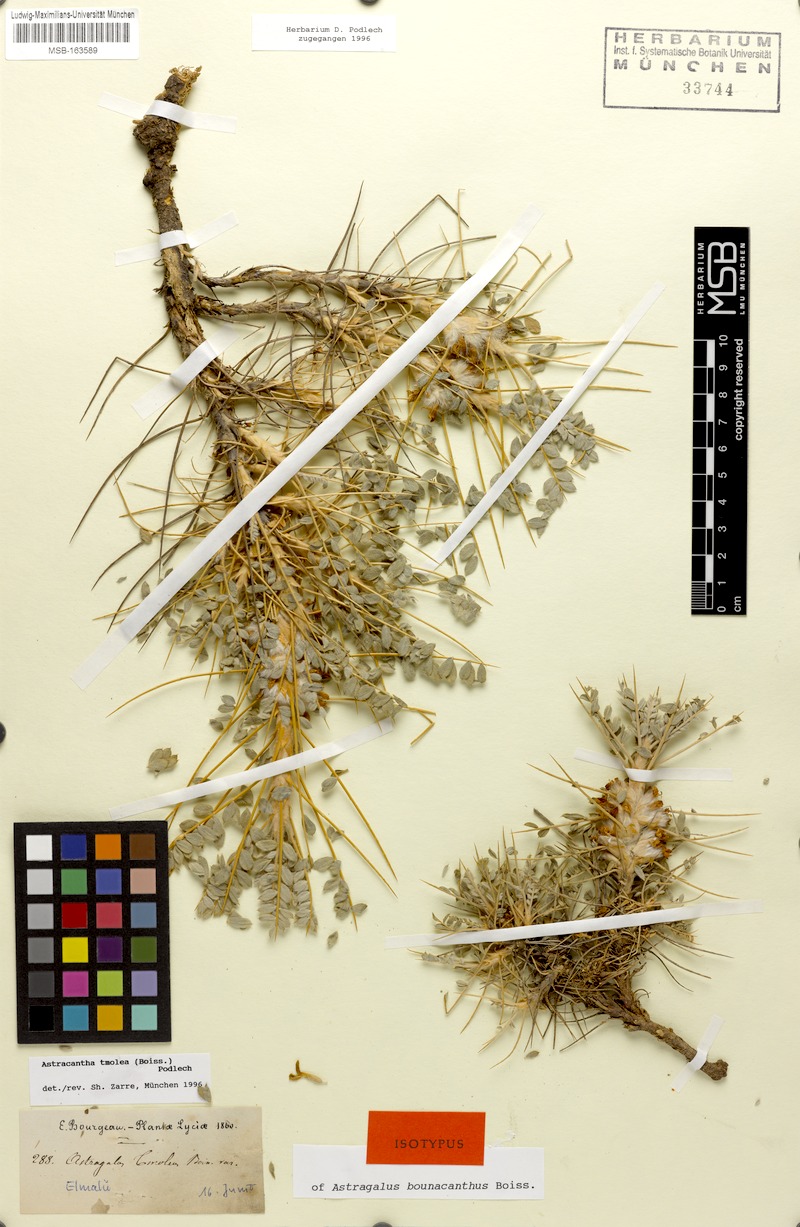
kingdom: Plantae
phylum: Tracheophyta
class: Magnoliopsida
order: Fabales
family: Fabaceae
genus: Astragalus
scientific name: Astragalus tmoleus
